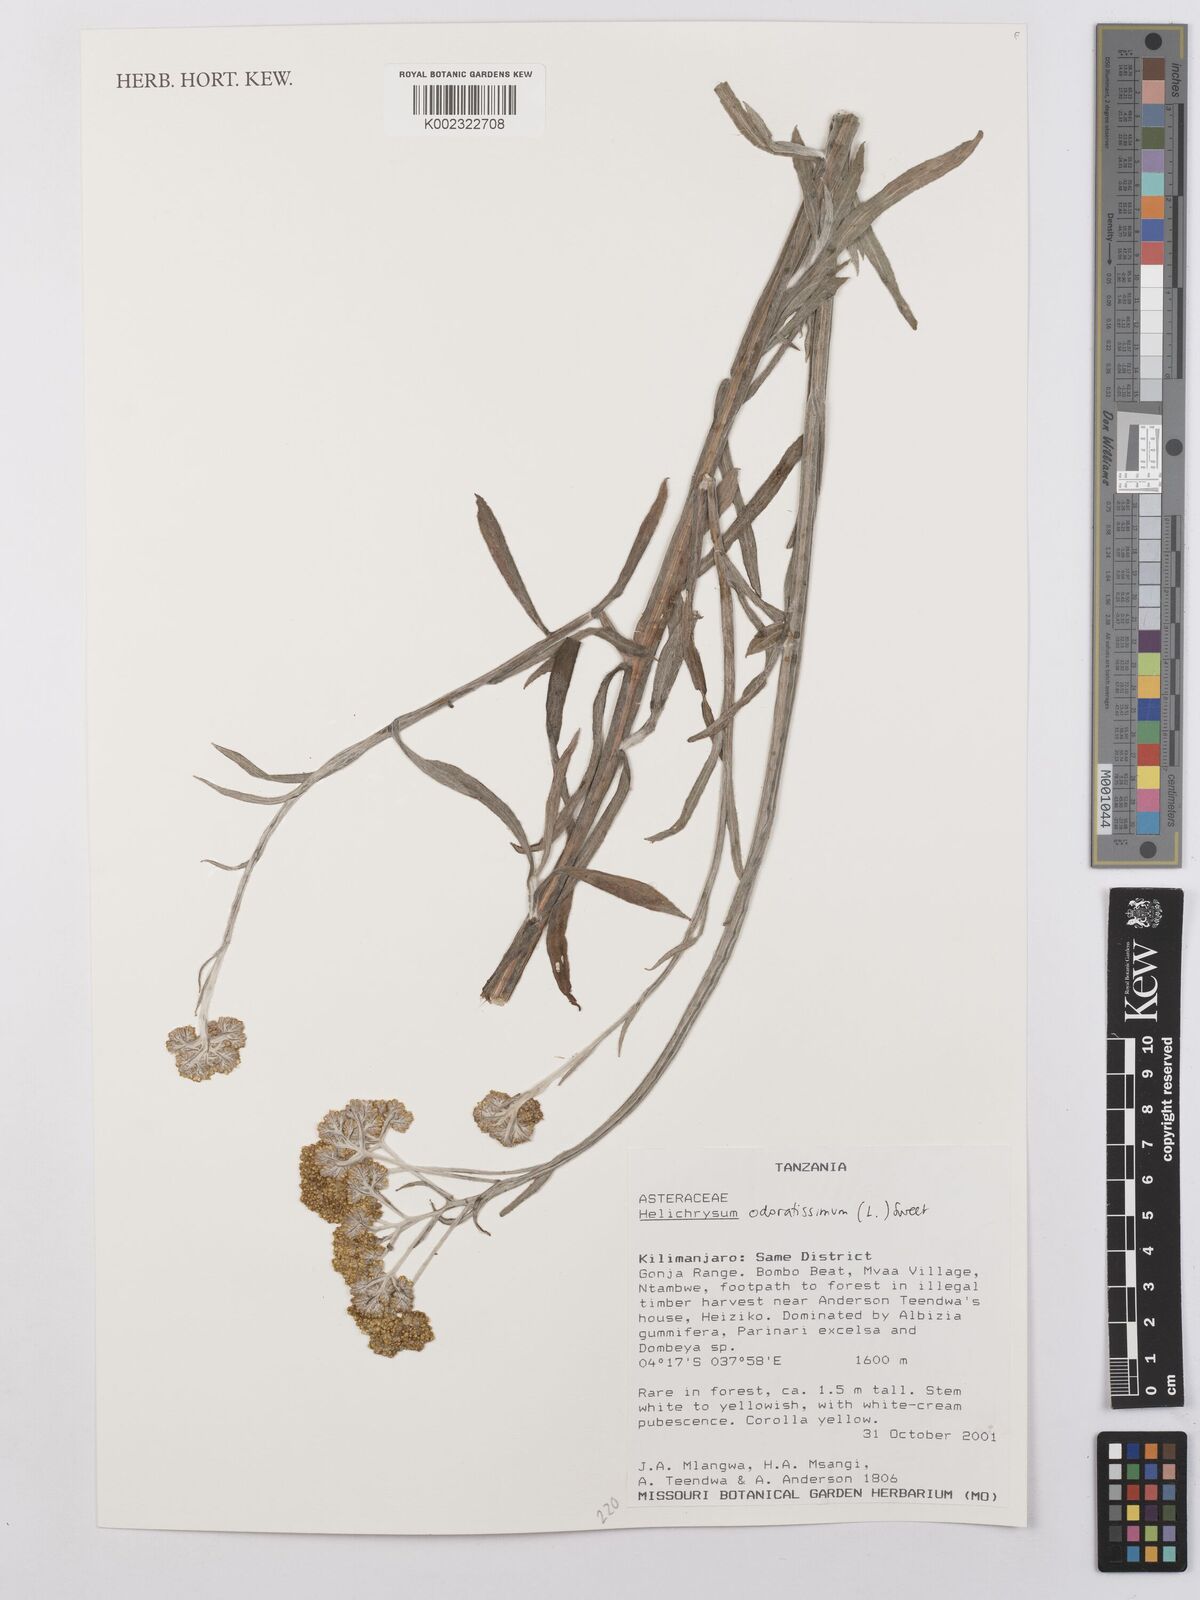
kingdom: Plantae
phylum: Tracheophyta
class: Magnoliopsida
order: Asterales
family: Asteraceae
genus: Helichrysum
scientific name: Helichrysum odoratissimum
